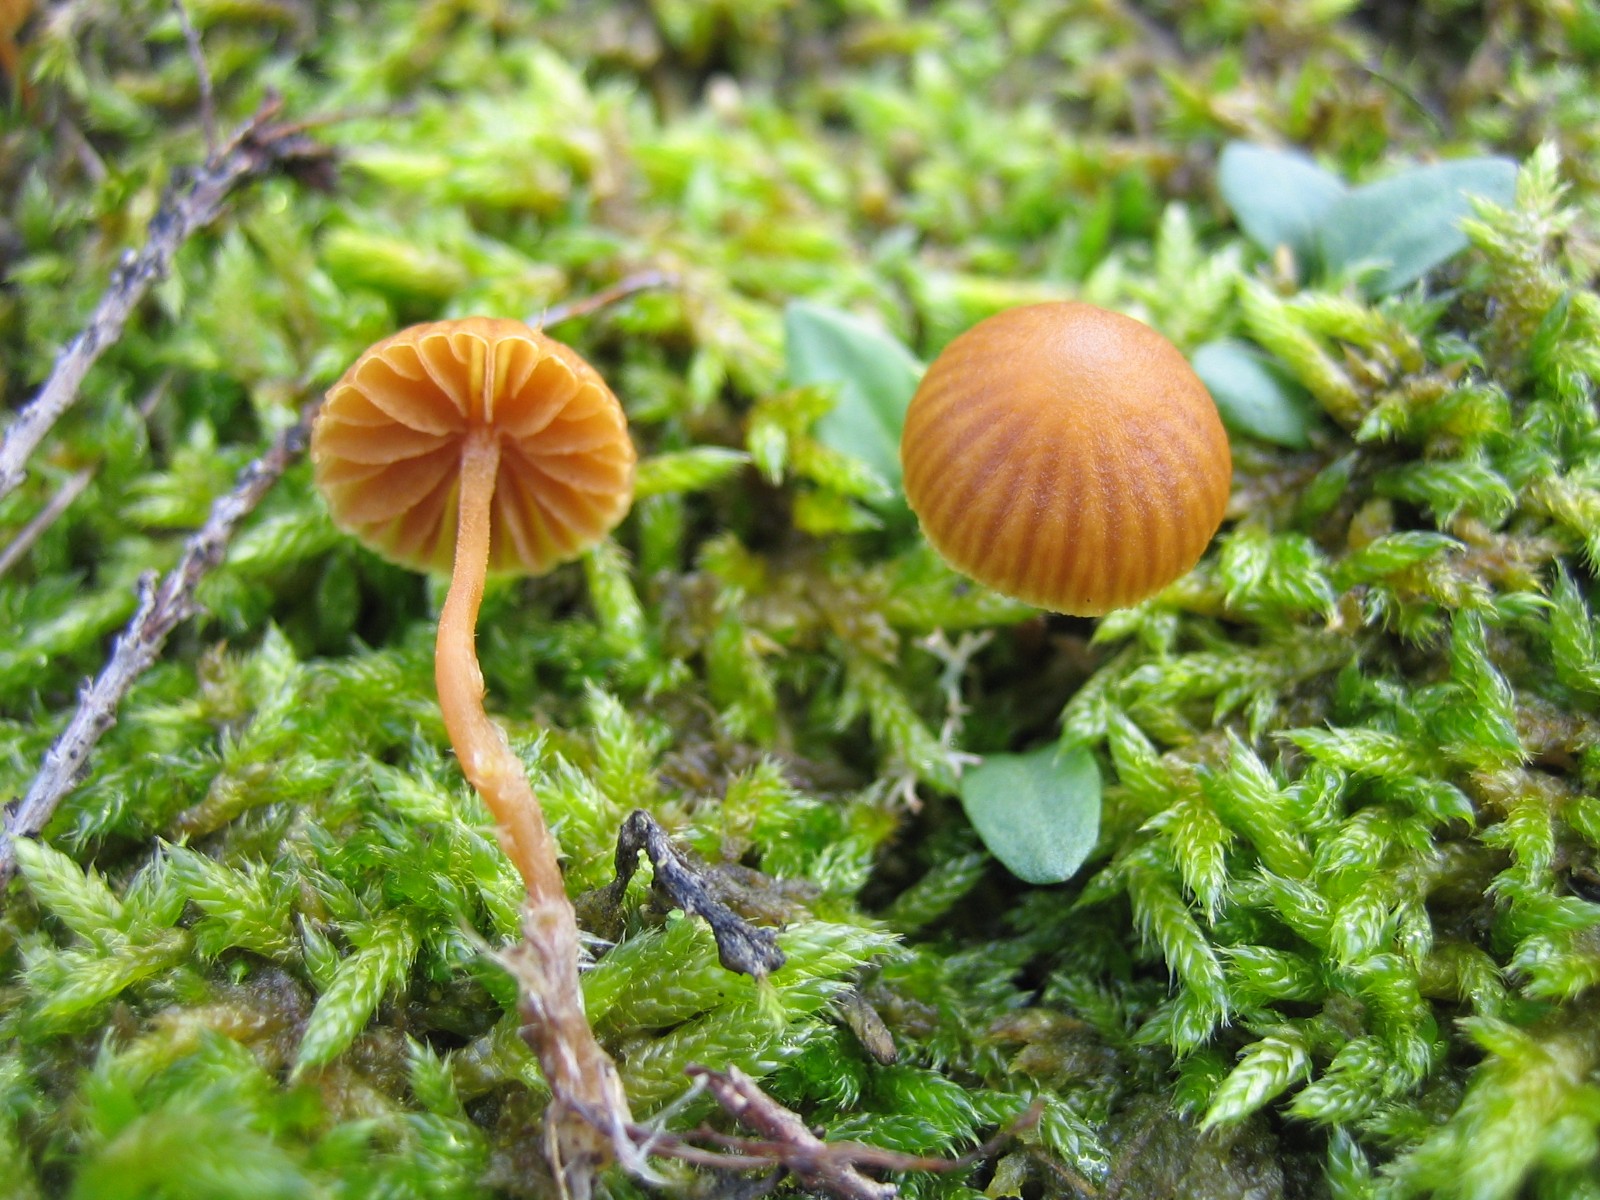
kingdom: Fungi
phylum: Basidiomycota
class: Agaricomycetes
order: Agaricales
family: Hymenogastraceae
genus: Galerina
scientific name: Galerina
